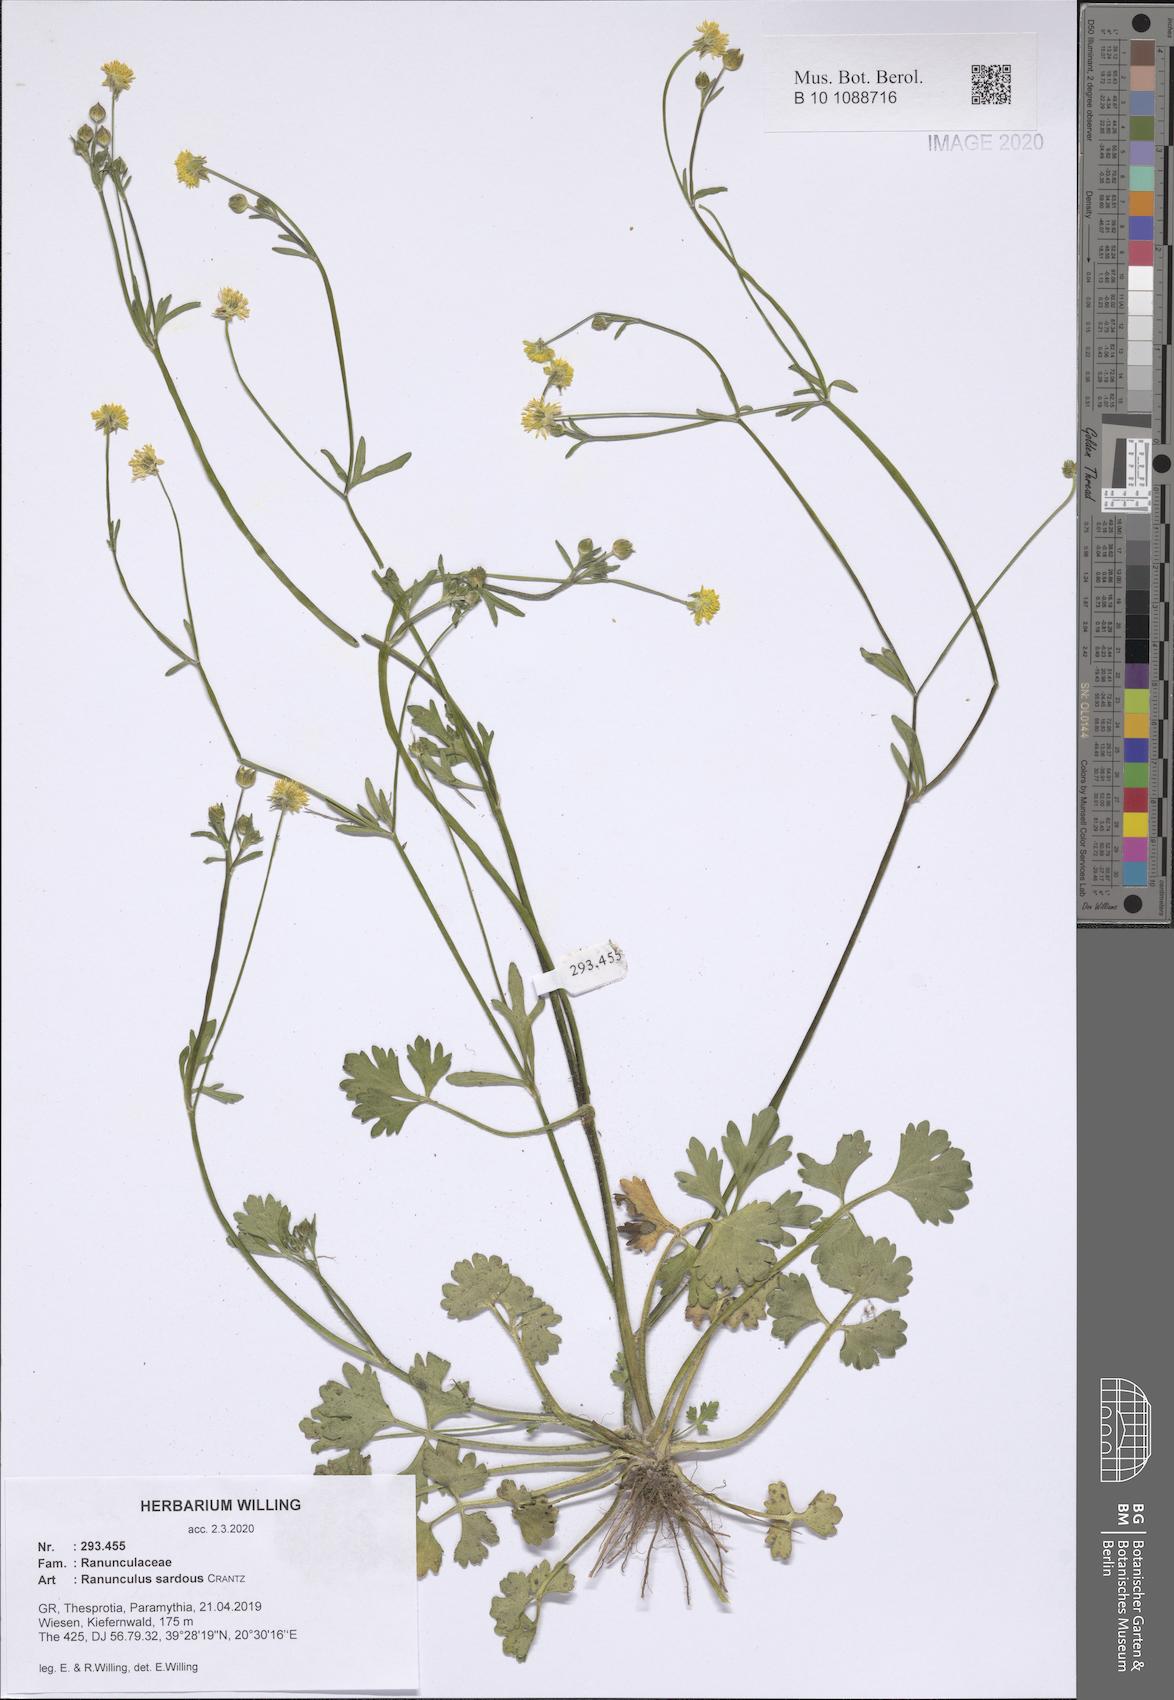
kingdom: Plantae
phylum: Tracheophyta
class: Magnoliopsida
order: Ranunculales
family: Ranunculaceae
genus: Ranunculus
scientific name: Ranunculus sardous
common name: Hairy buttercup
